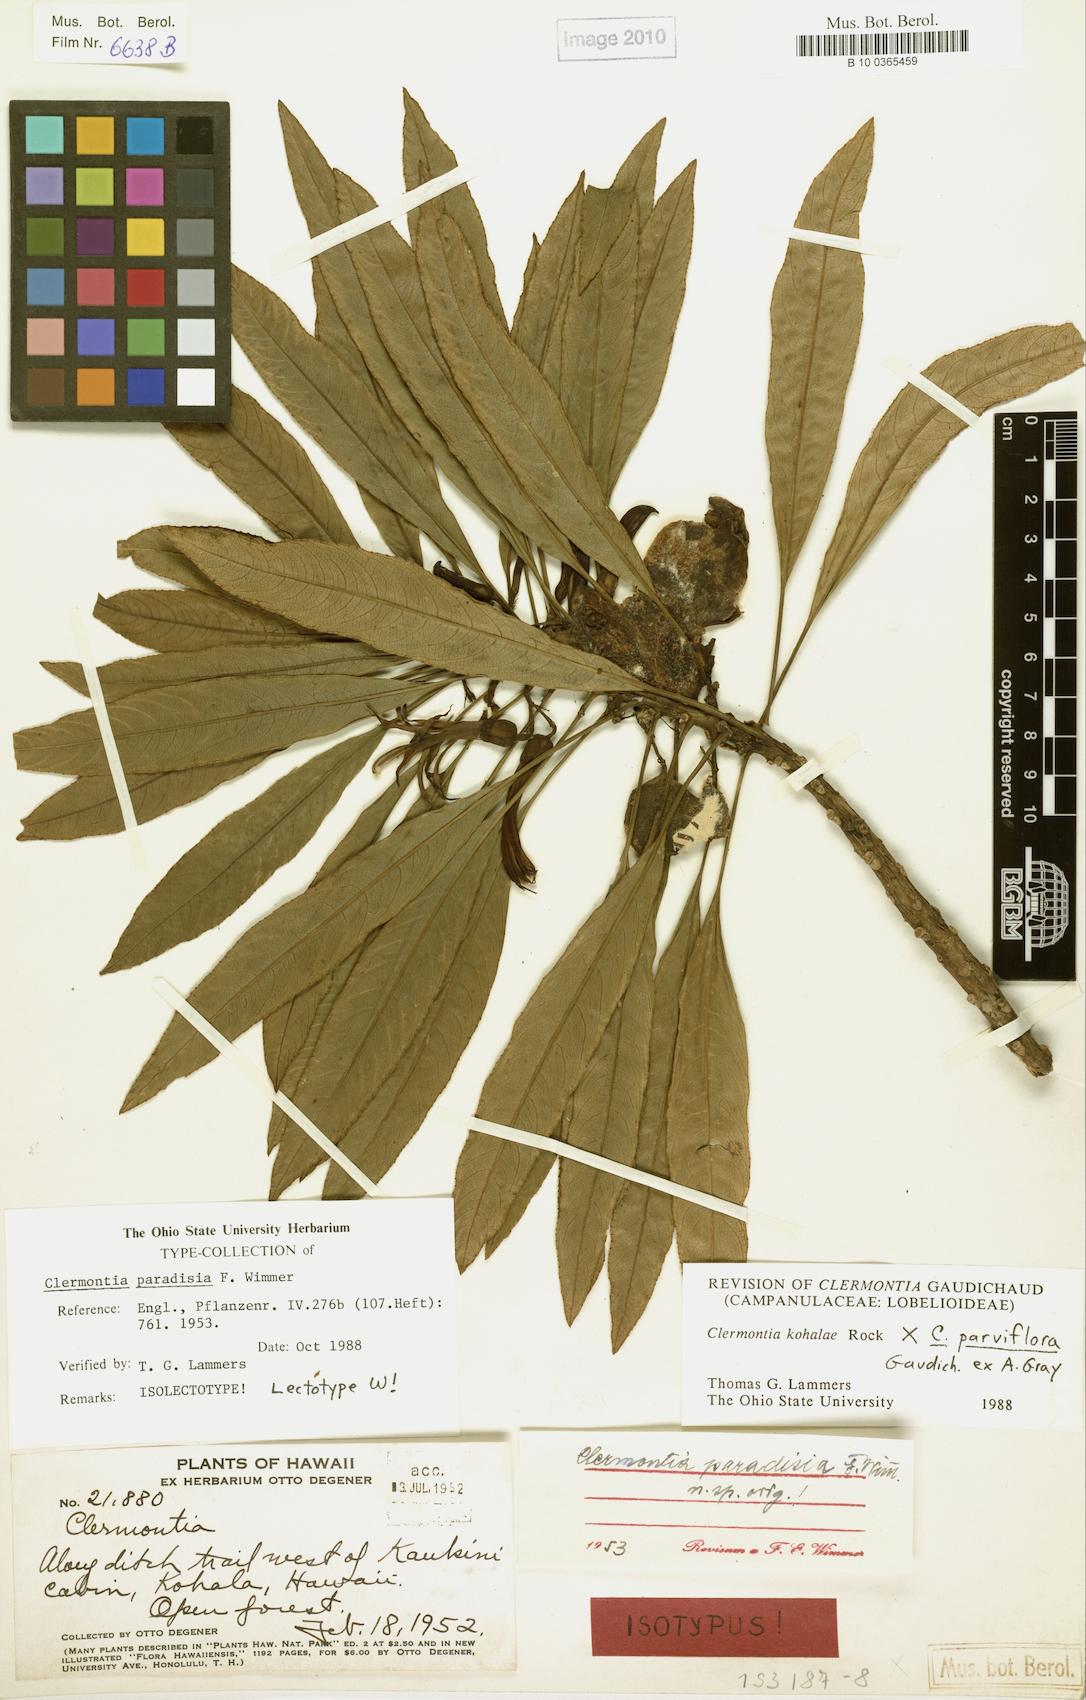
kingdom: Plantae
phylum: Tracheophyta
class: Magnoliopsida
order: Asterales
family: Campanulaceae
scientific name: Campanulaceae
